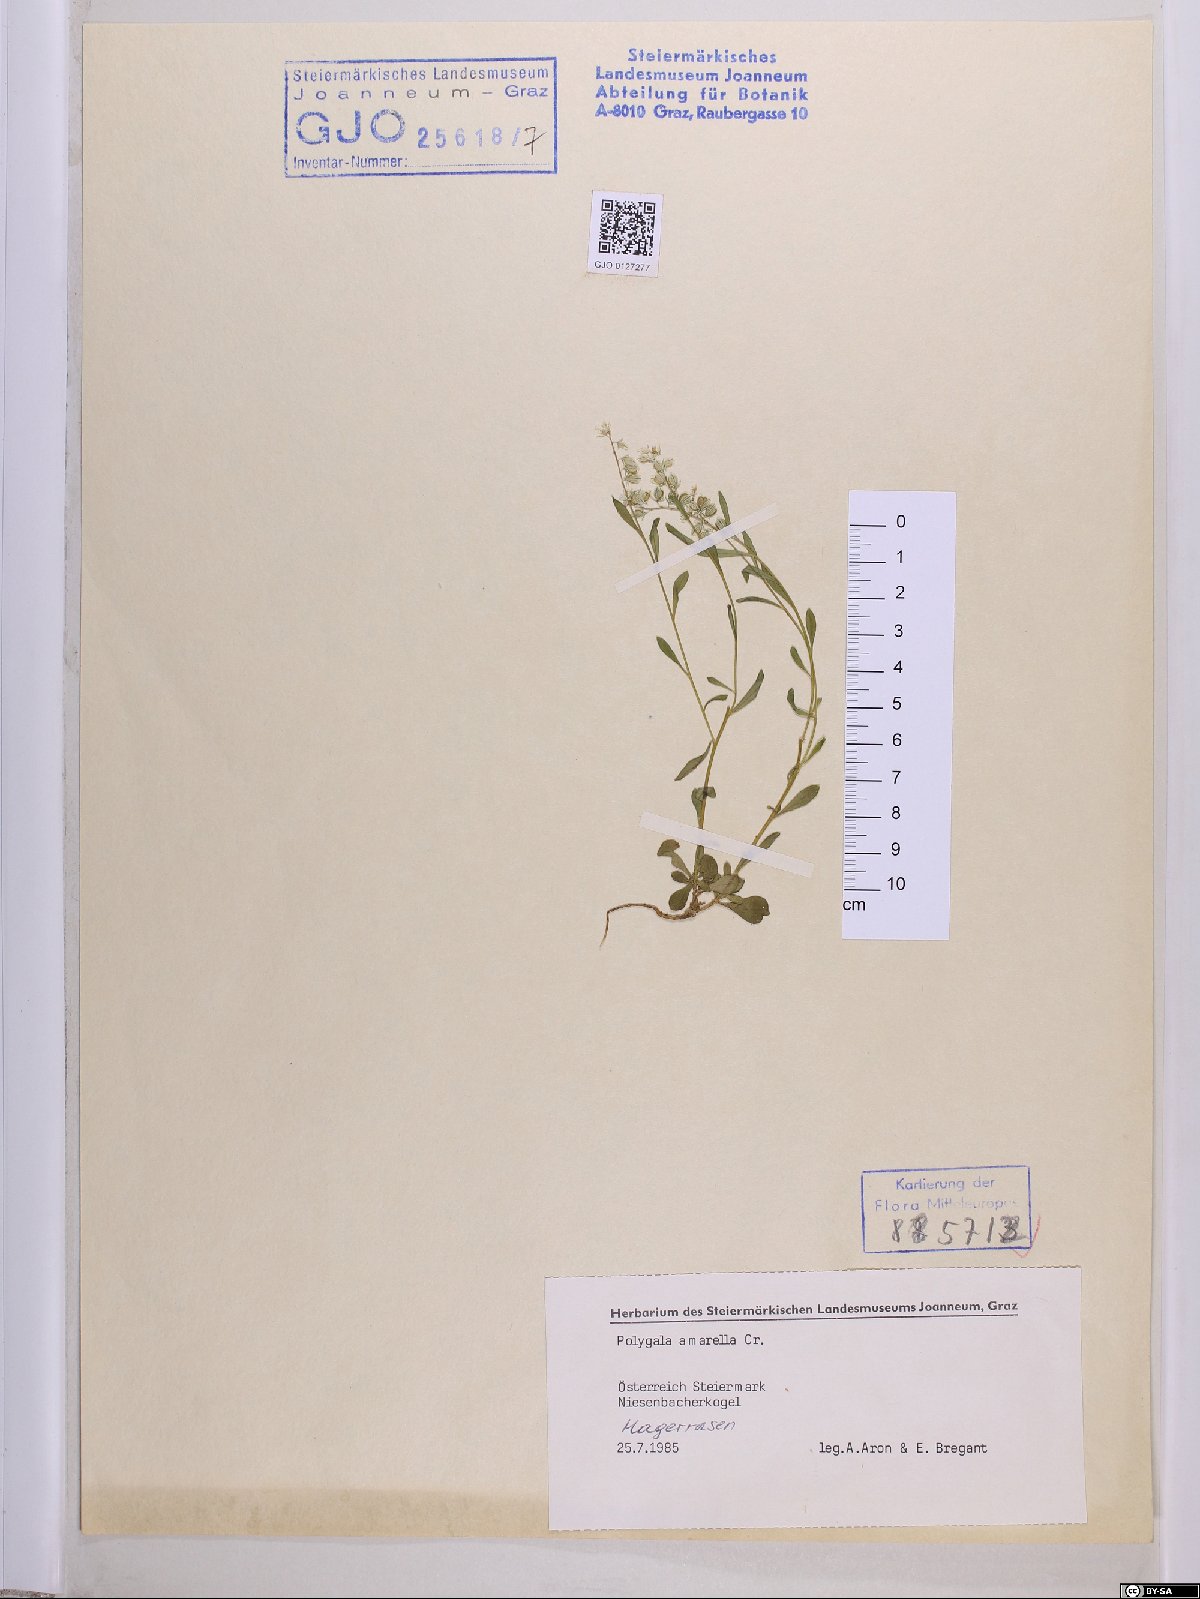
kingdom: Plantae
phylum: Tracheophyta
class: Magnoliopsida
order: Fabales
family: Polygalaceae
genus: Polygala
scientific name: Polygala amarella
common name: Dwarf milkwort
